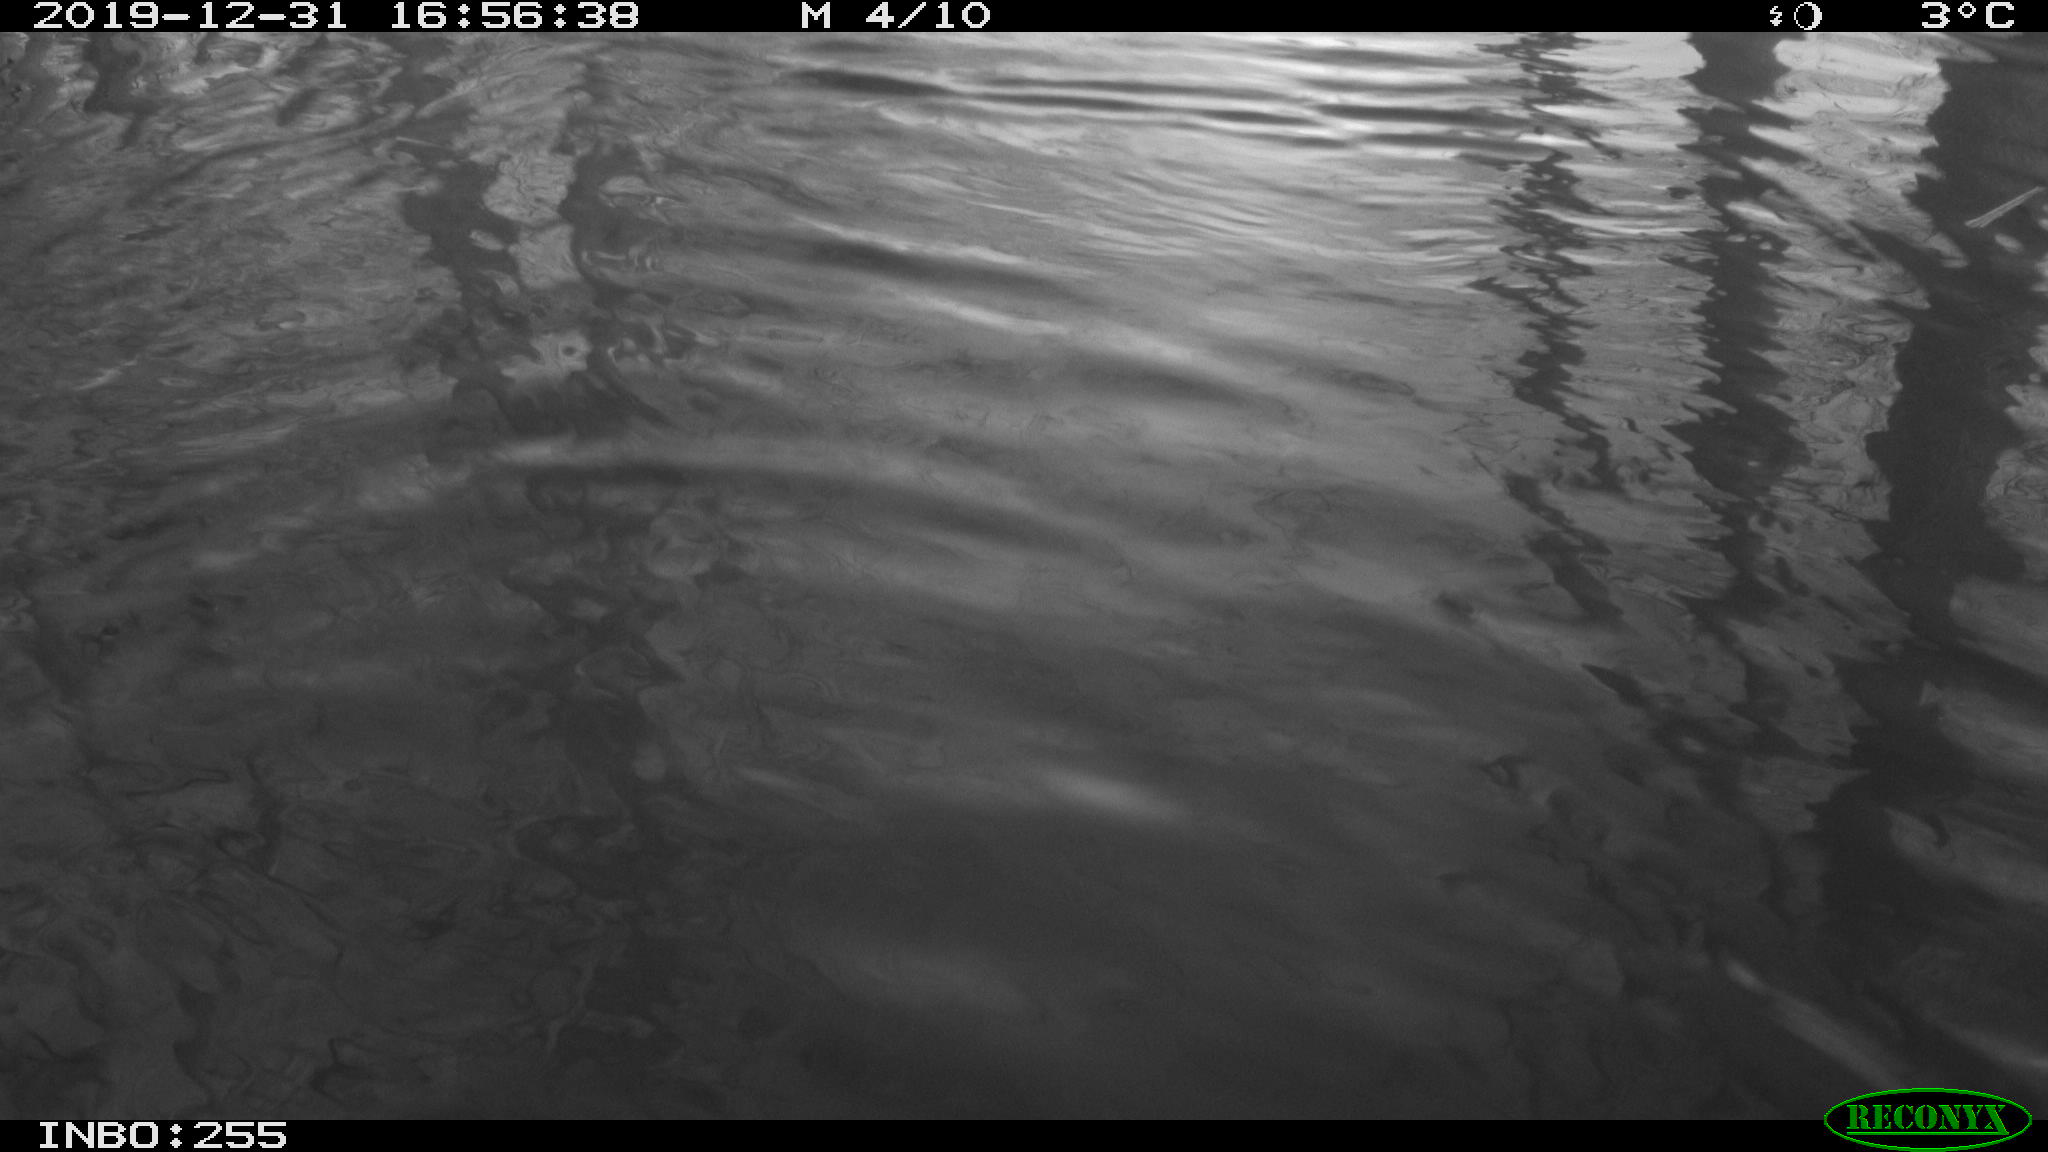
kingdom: Animalia
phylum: Chordata
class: Aves
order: Gruiformes
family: Rallidae
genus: Gallinula
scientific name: Gallinula chloropus
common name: Common moorhen
